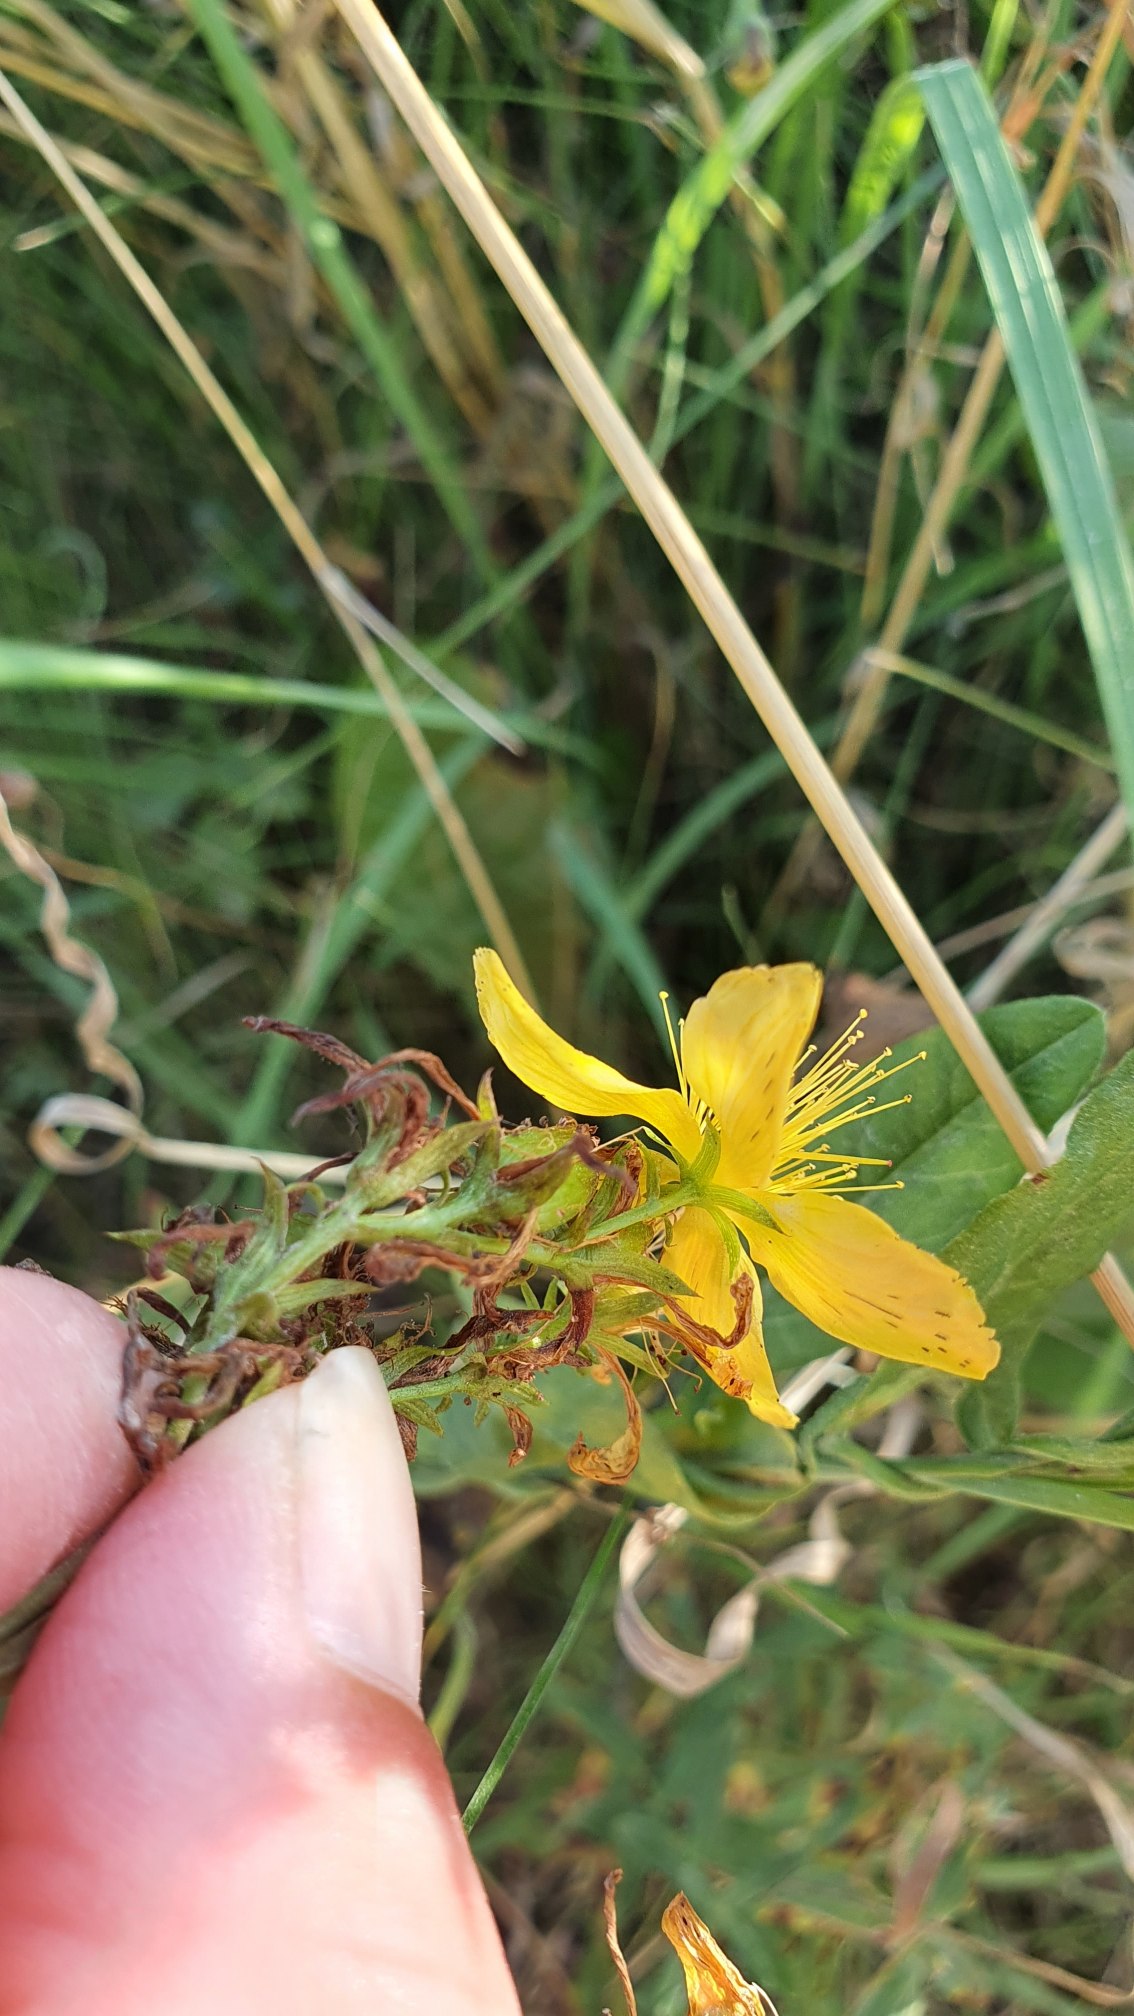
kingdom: Plantae
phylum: Tracheophyta
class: Magnoliopsida
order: Malpighiales
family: Hypericaceae
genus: Hypericum
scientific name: Hypericum perforatum
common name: Prikbladet perikon
